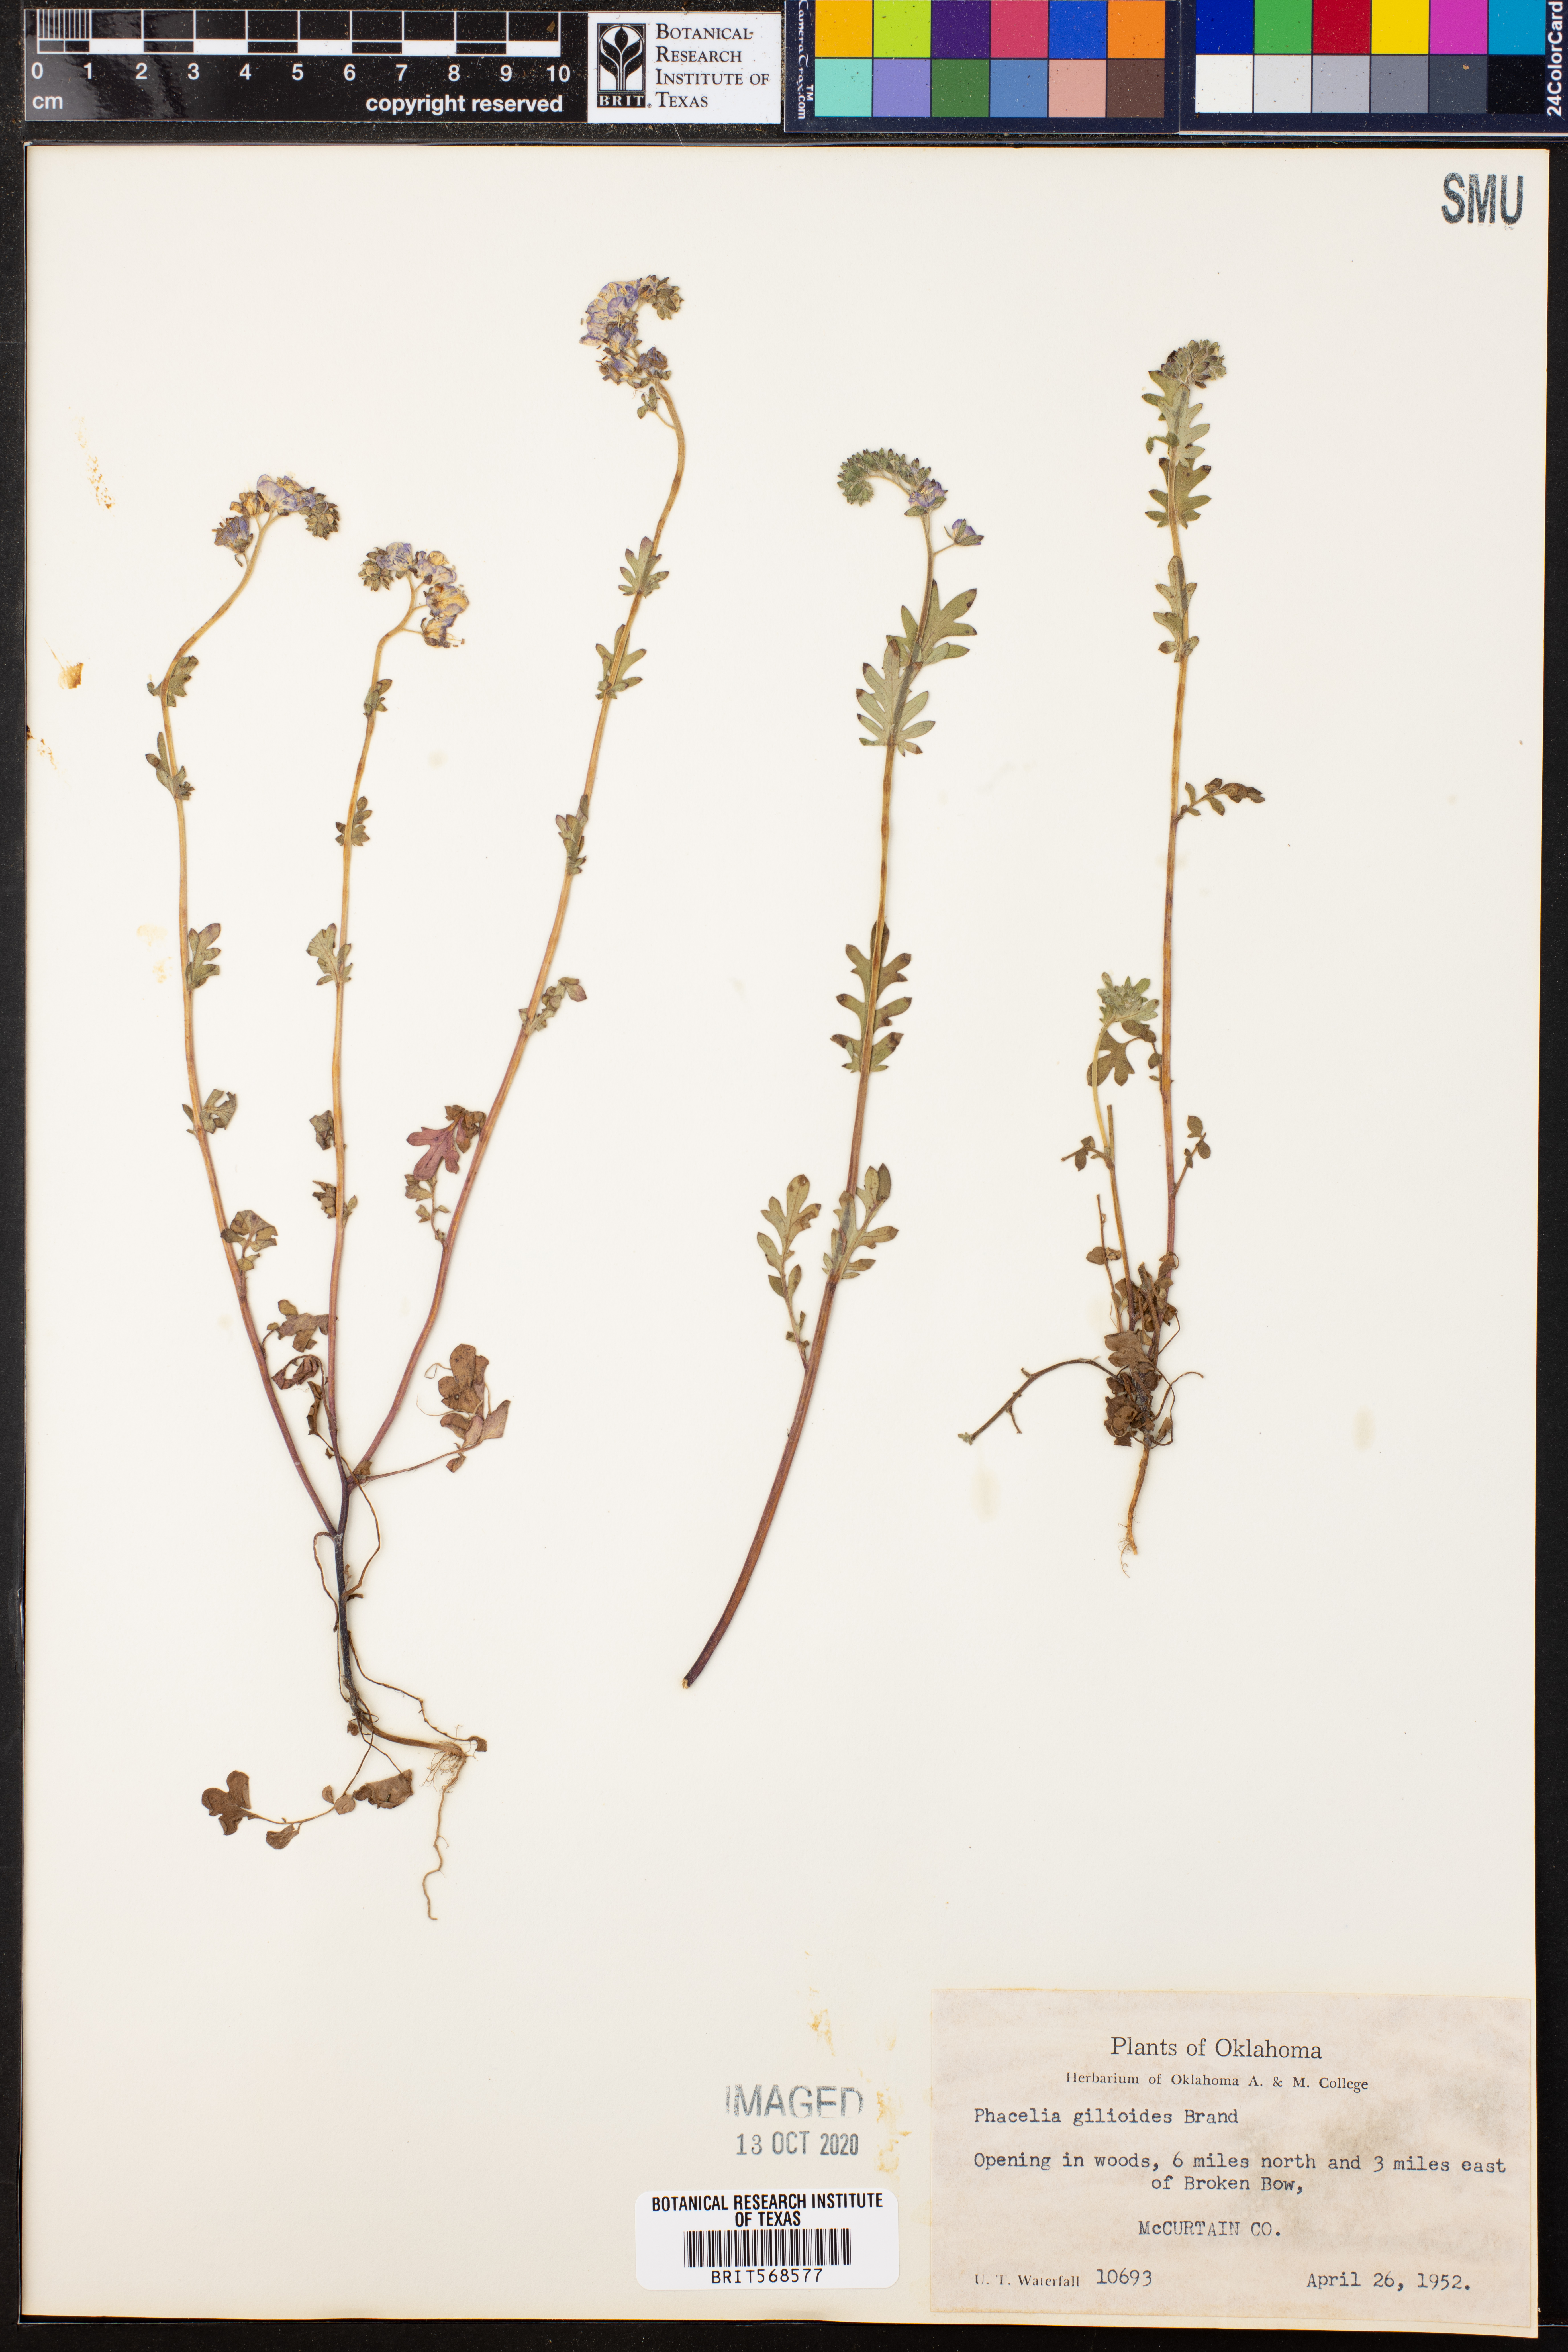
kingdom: Plantae
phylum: Tracheophyta
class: Magnoliopsida
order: Boraginales
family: Hydrophyllaceae
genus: Phacelia
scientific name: Phacelia gilioides
